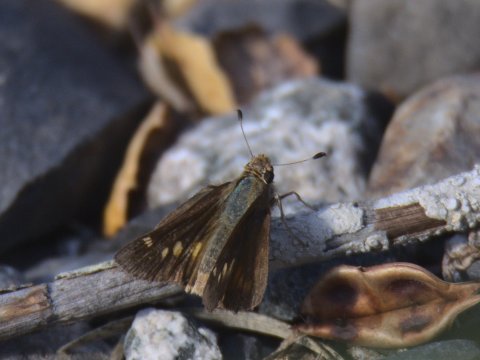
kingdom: Animalia
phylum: Arthropoda
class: Insecta
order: Lepidoptera
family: Hesperiidae
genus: Lon
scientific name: Lon melane
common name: Umber Skipper
